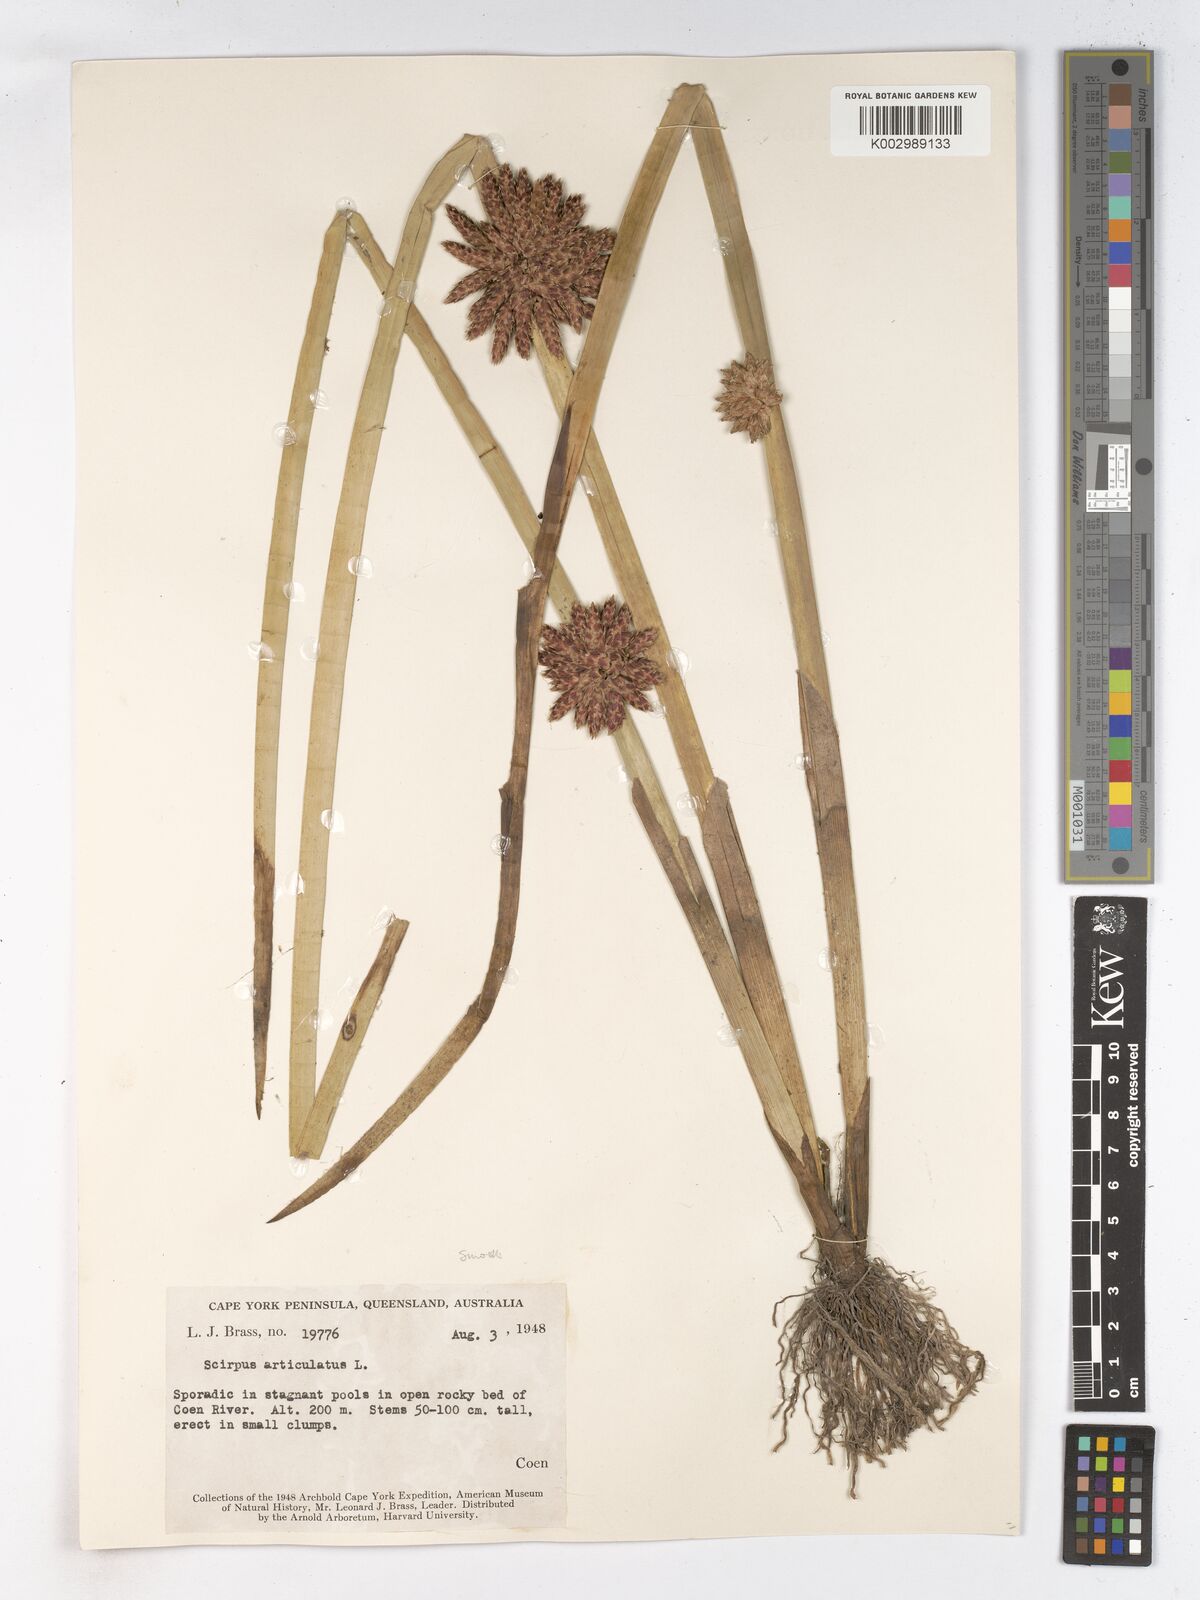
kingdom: Plantae
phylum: Tracheophyta
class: Liliopsida
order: Poales
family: Cyperaceae
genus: Schoenoplectiella
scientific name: Schoenoplectiella articulata
